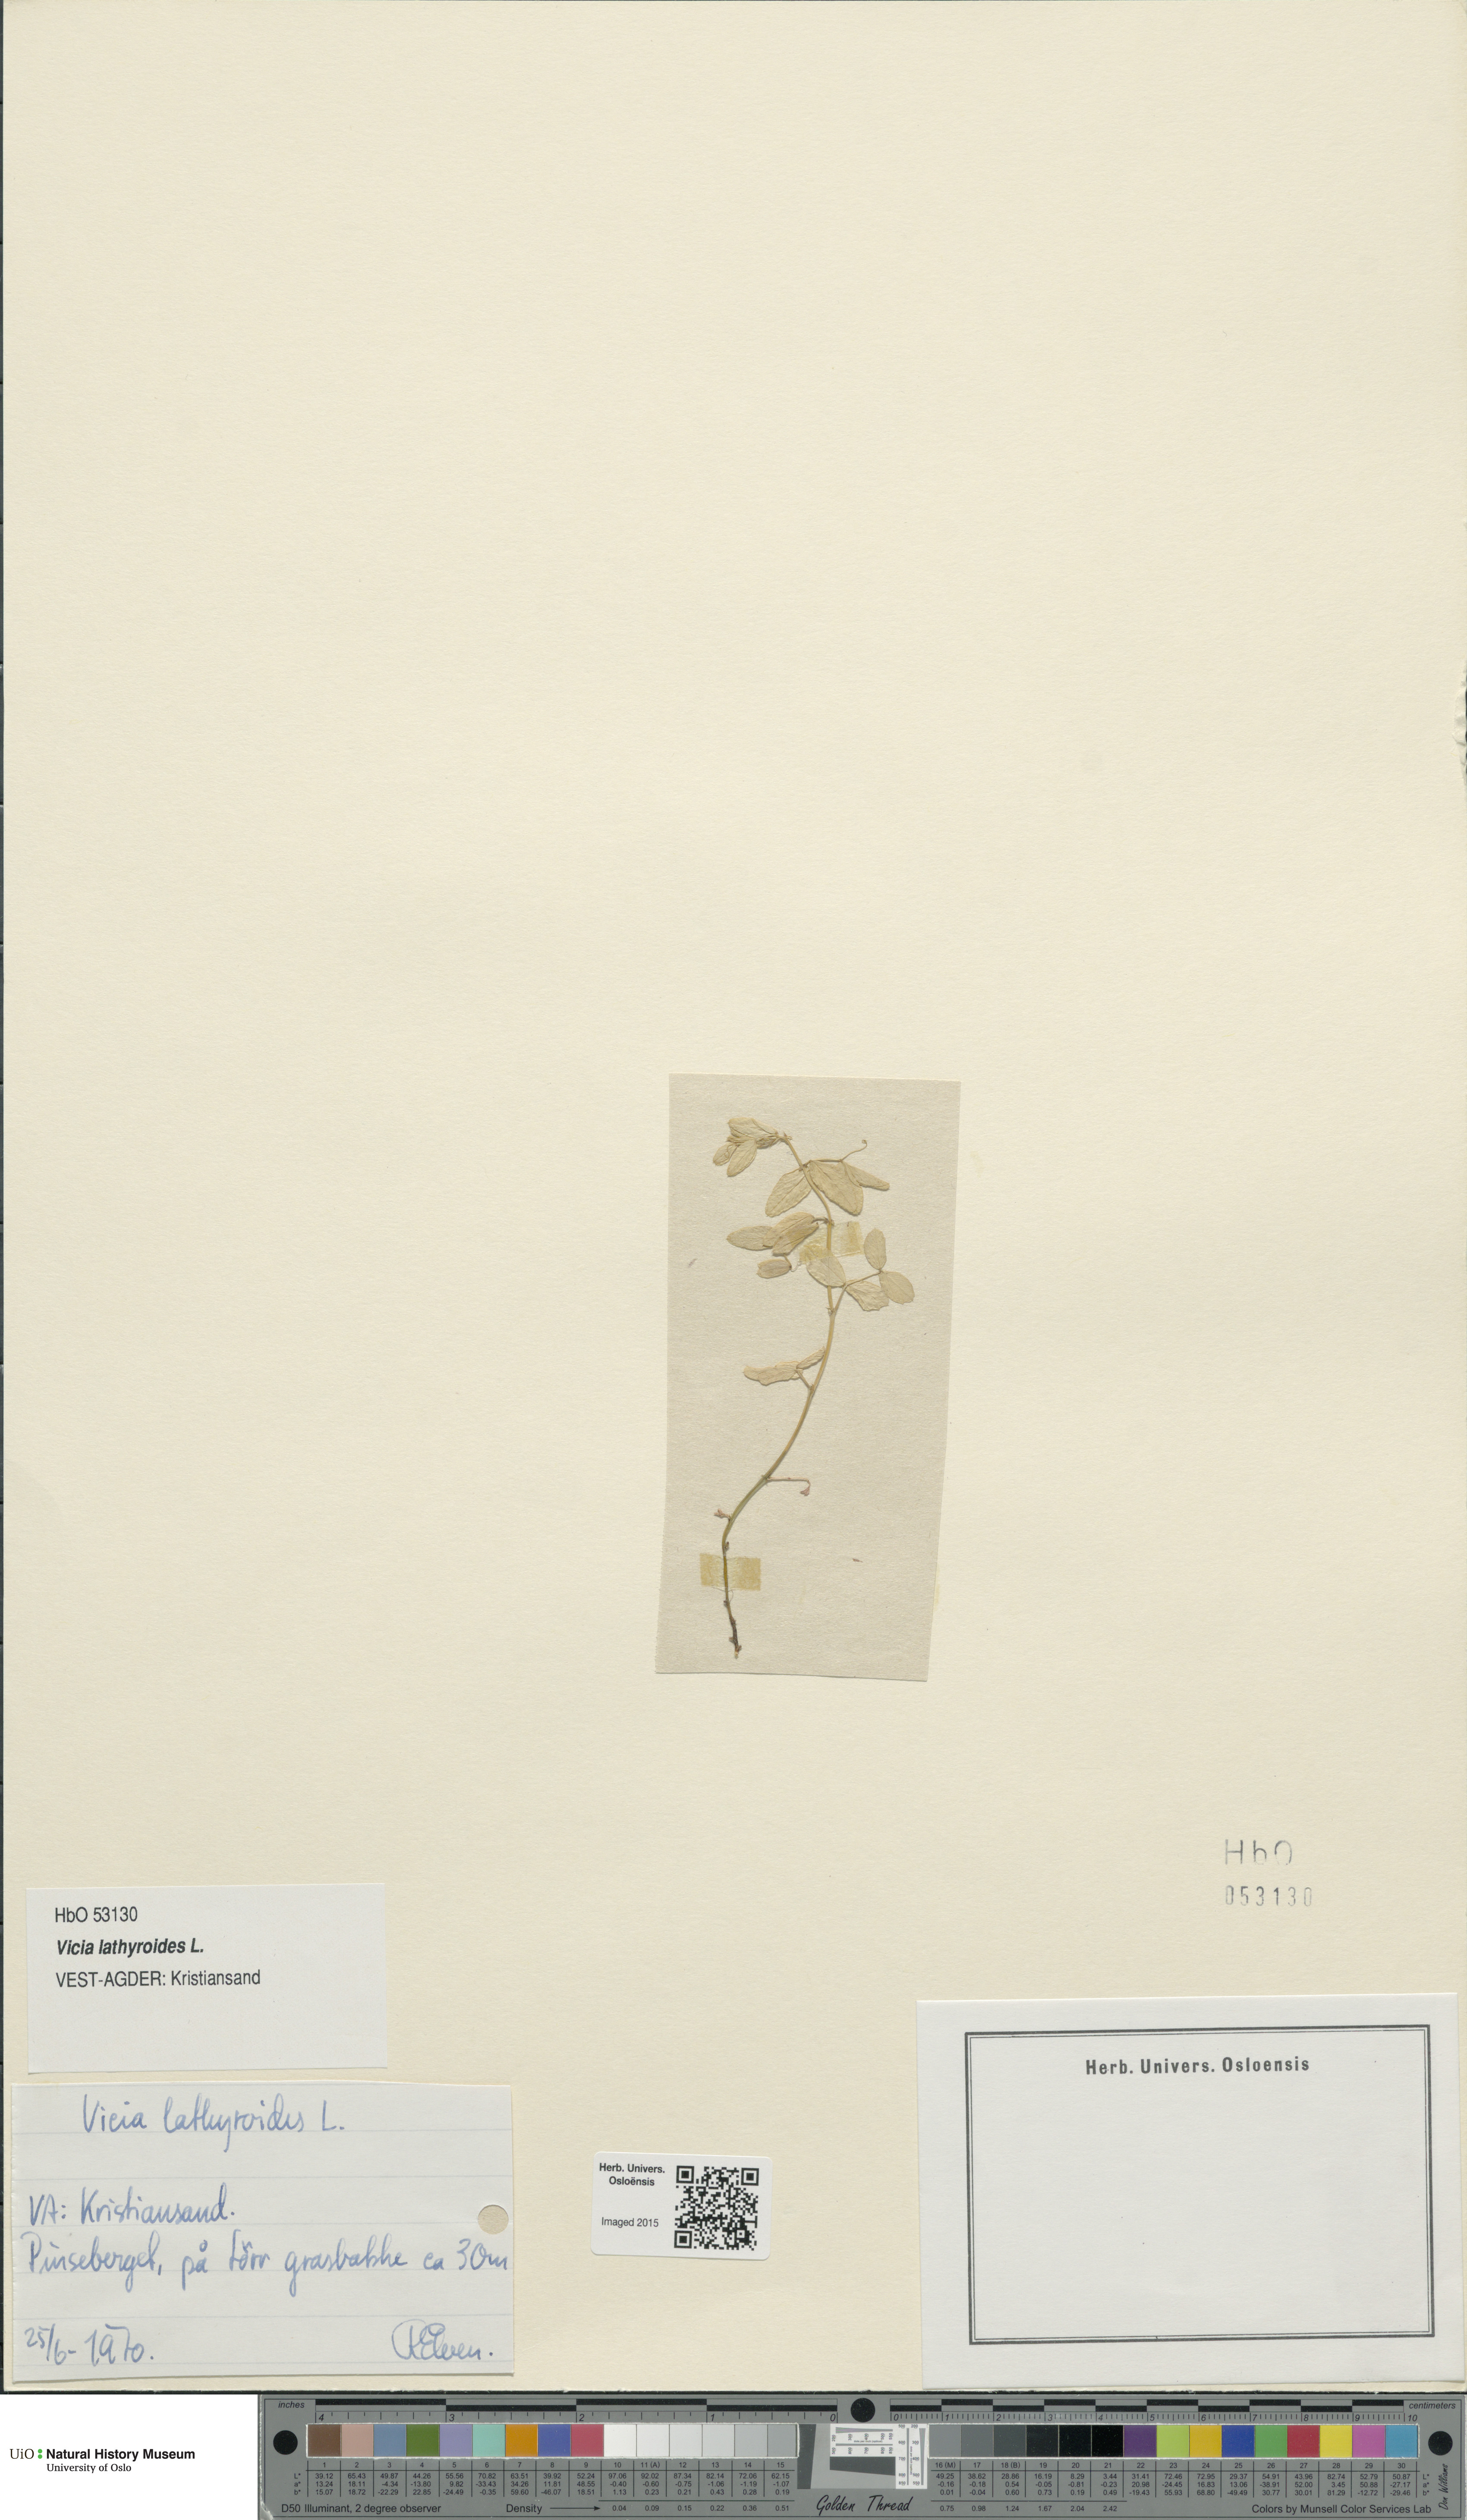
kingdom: Plantae
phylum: Tracheophyta
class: Magnoliopsida
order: Fabales
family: Fabaceae
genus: Vicia
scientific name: Vicia lathyroides
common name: Spring vetch
